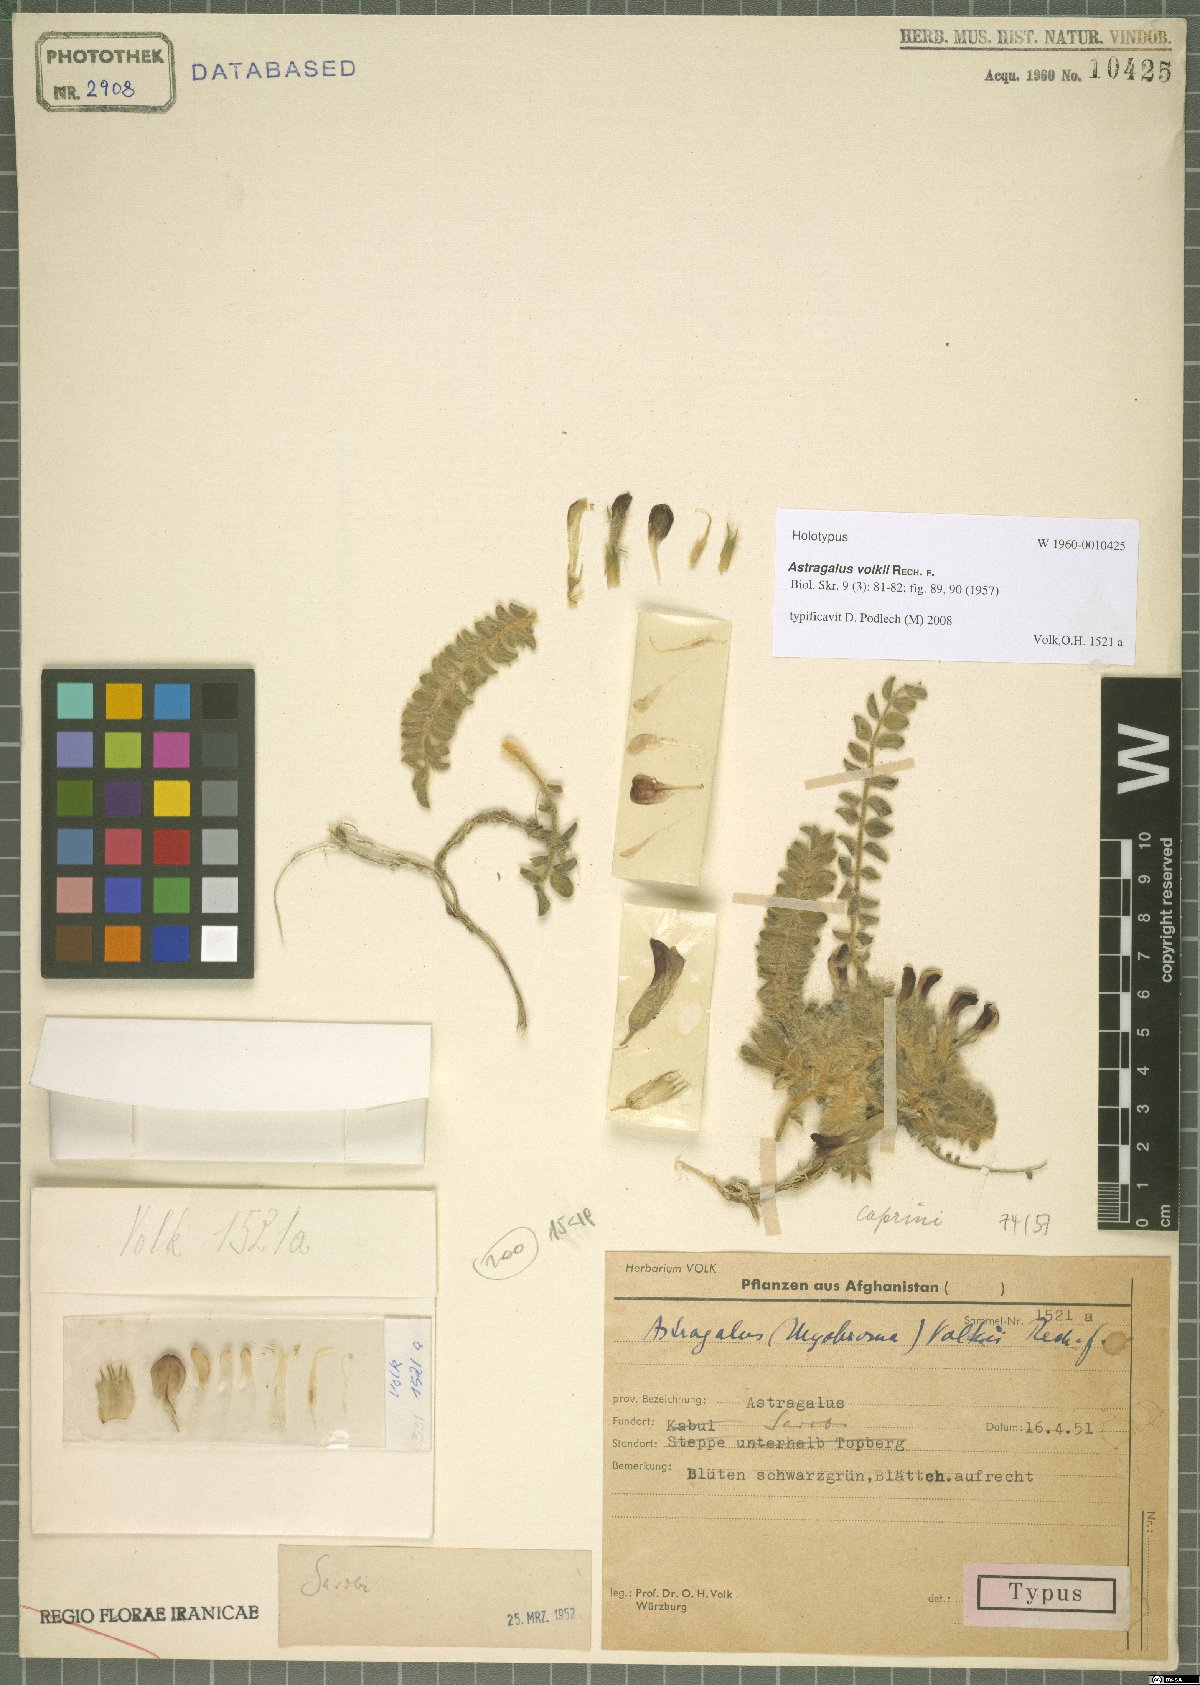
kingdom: Plantae
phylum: Tracheophyta
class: Magnoliopsida
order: Fabales
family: Fabaceae
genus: Astragalus
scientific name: Astragalus volkii
